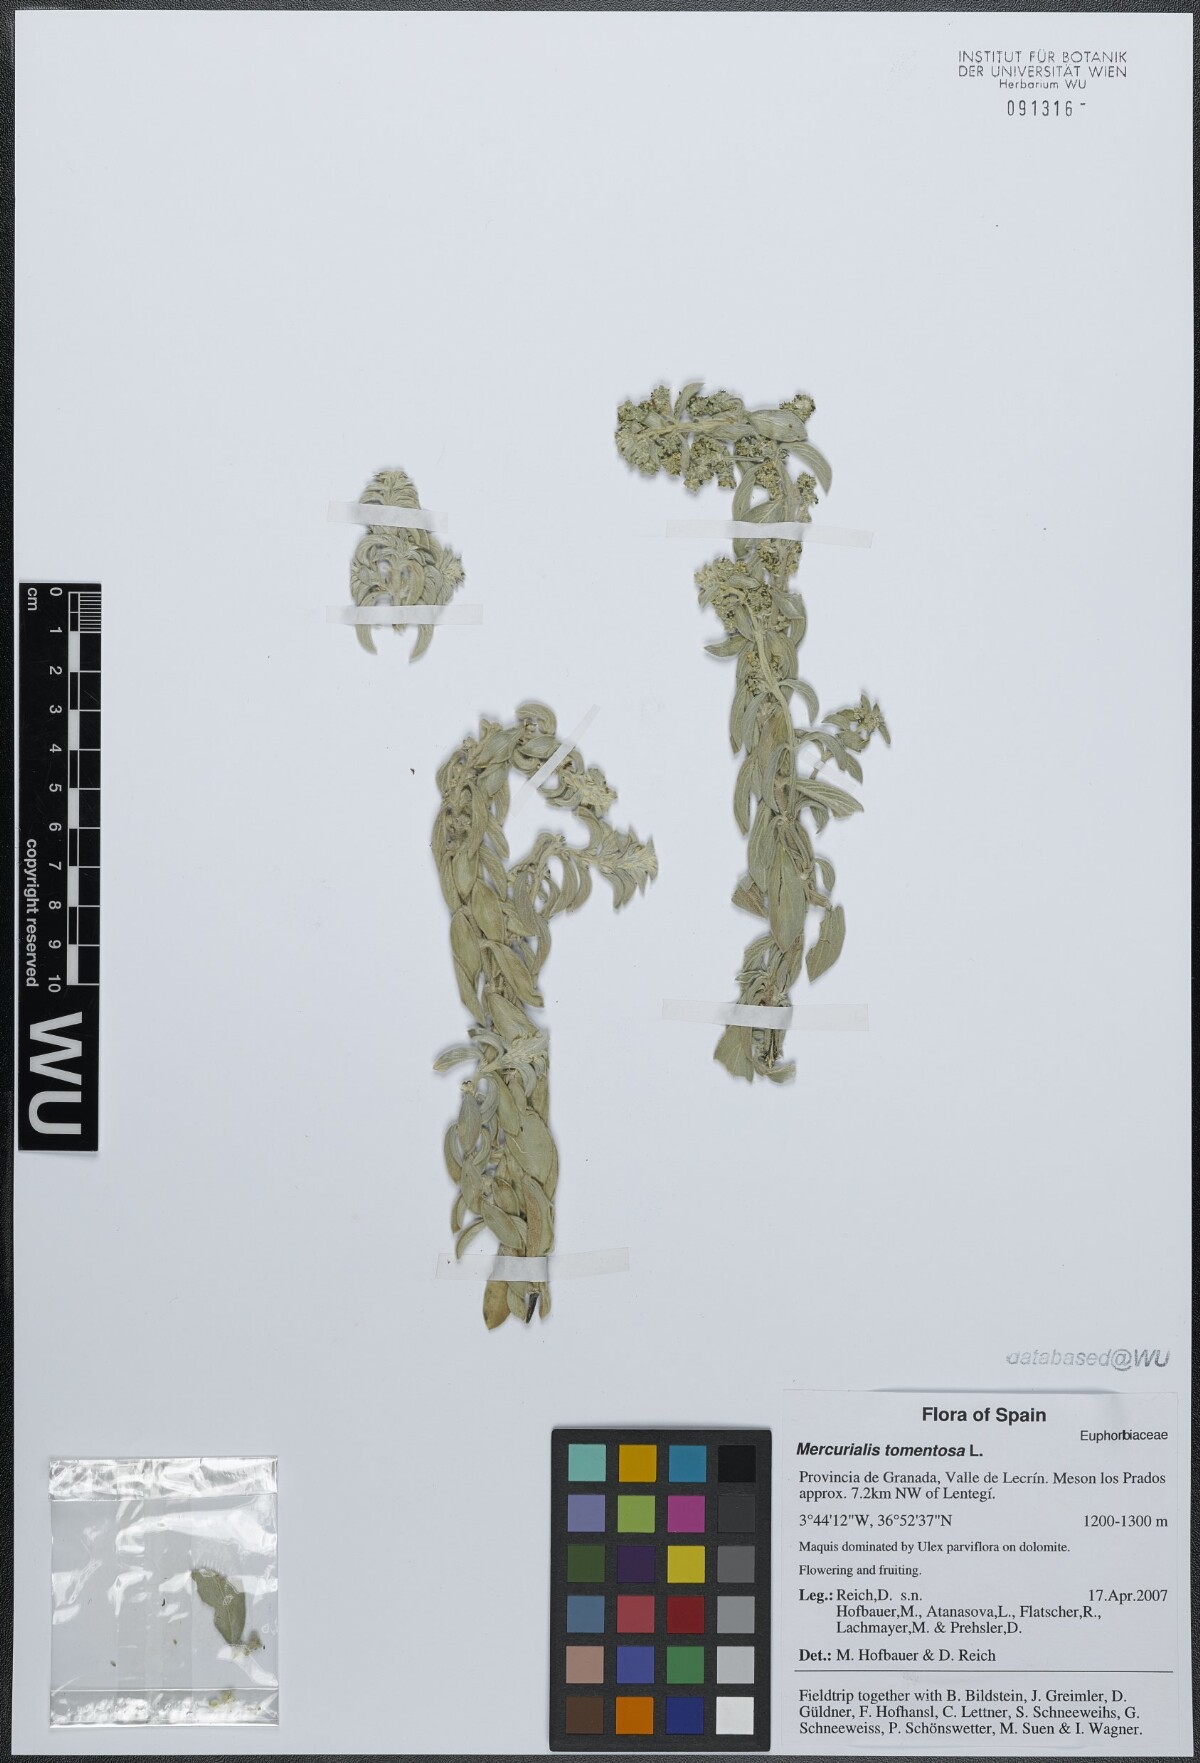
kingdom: Plantae
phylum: Tracheophyta
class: Magnoliopsida
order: Malpighiales
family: Euphorbiaceae
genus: Mercurialis
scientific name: Mercurialis tomentosa
